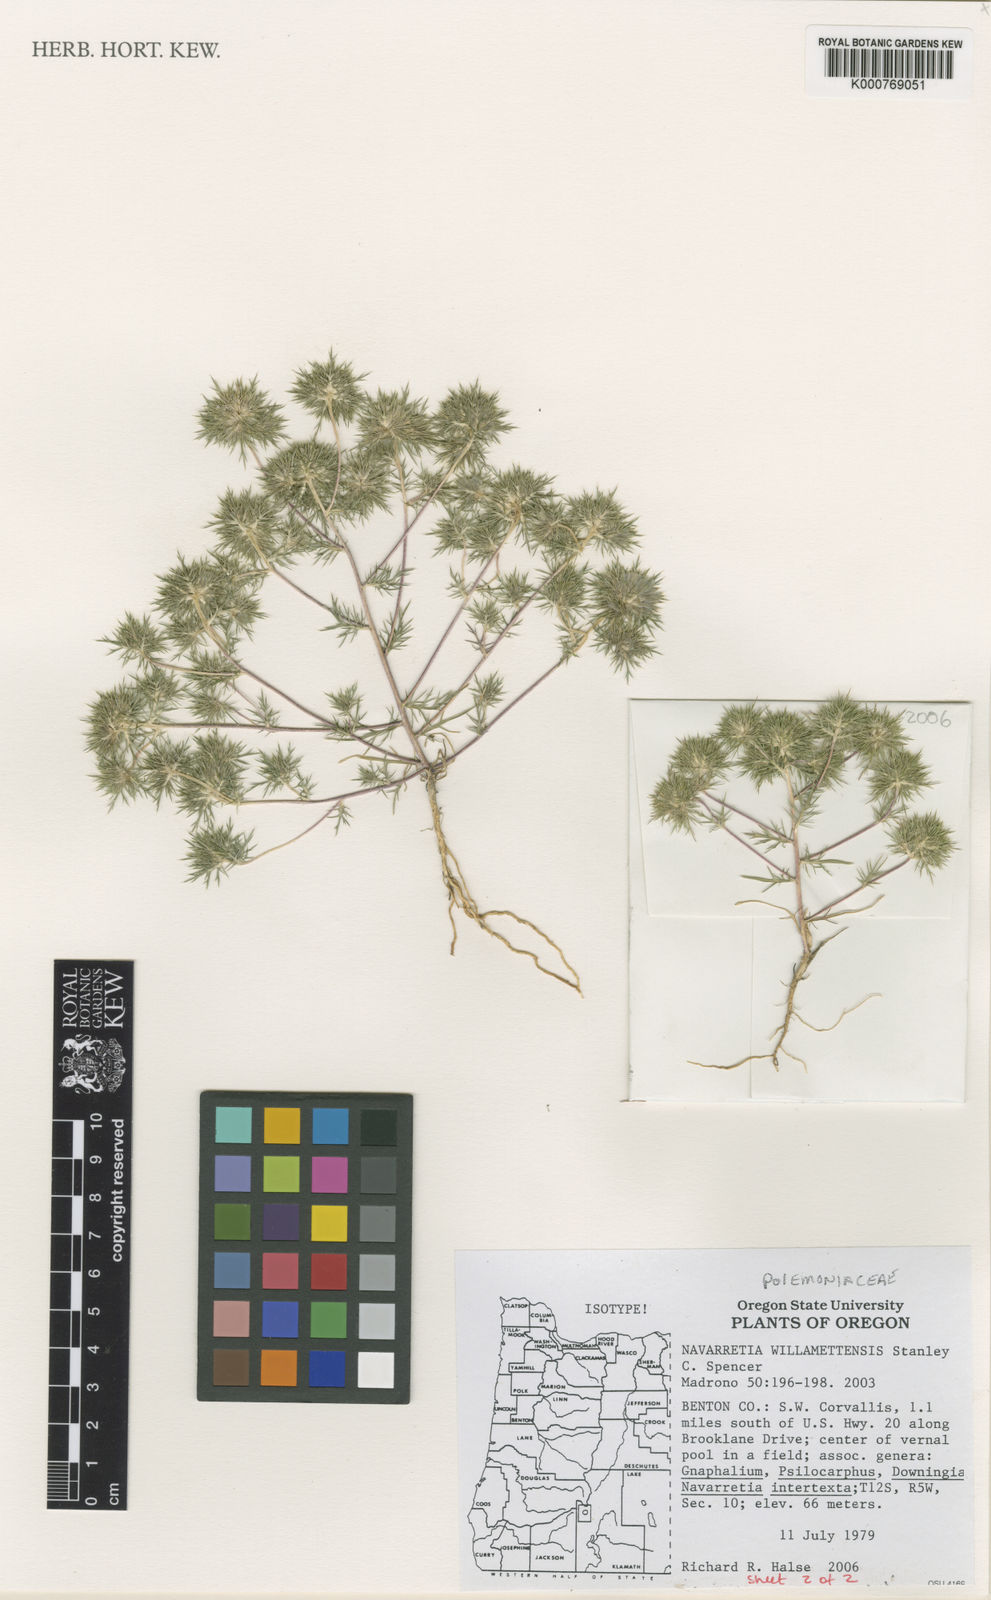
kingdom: Plantae
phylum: Tracheophyta
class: Magnoliopsida
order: Ericales
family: Polemoniaceae
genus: Navarretia
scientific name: Navarretia willamettensis
